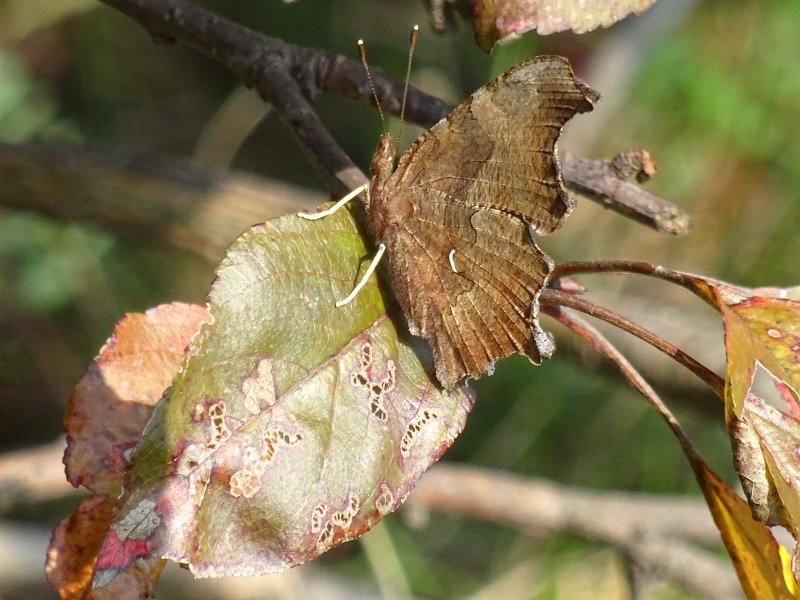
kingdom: Animalia
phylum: Arthropoda
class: Insecta
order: Lepidoptera
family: Nymphalidae
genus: Polygonia
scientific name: Polygonia comma
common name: Eastern Comma
